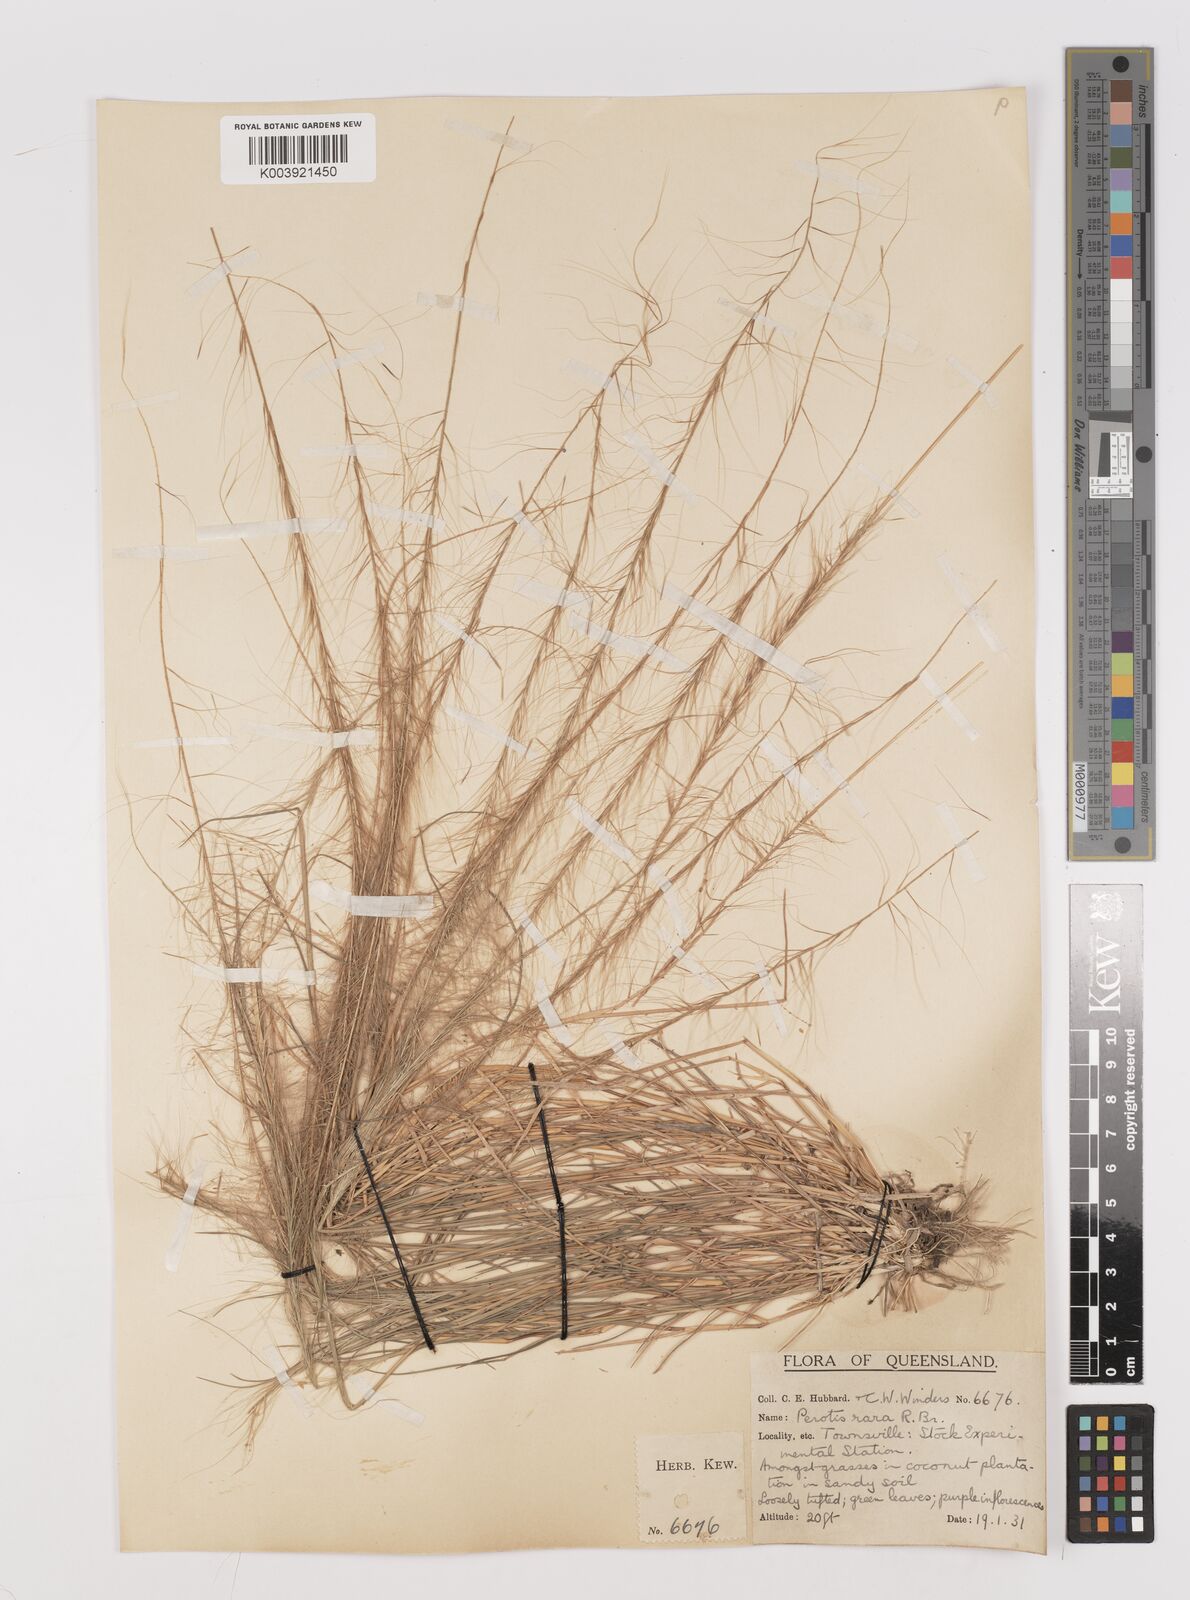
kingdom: Plantae
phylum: Tracheophyta
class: Liliopsida
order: Poales
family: Poaceae
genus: Perotis
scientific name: Perotis rara
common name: Comet grass
